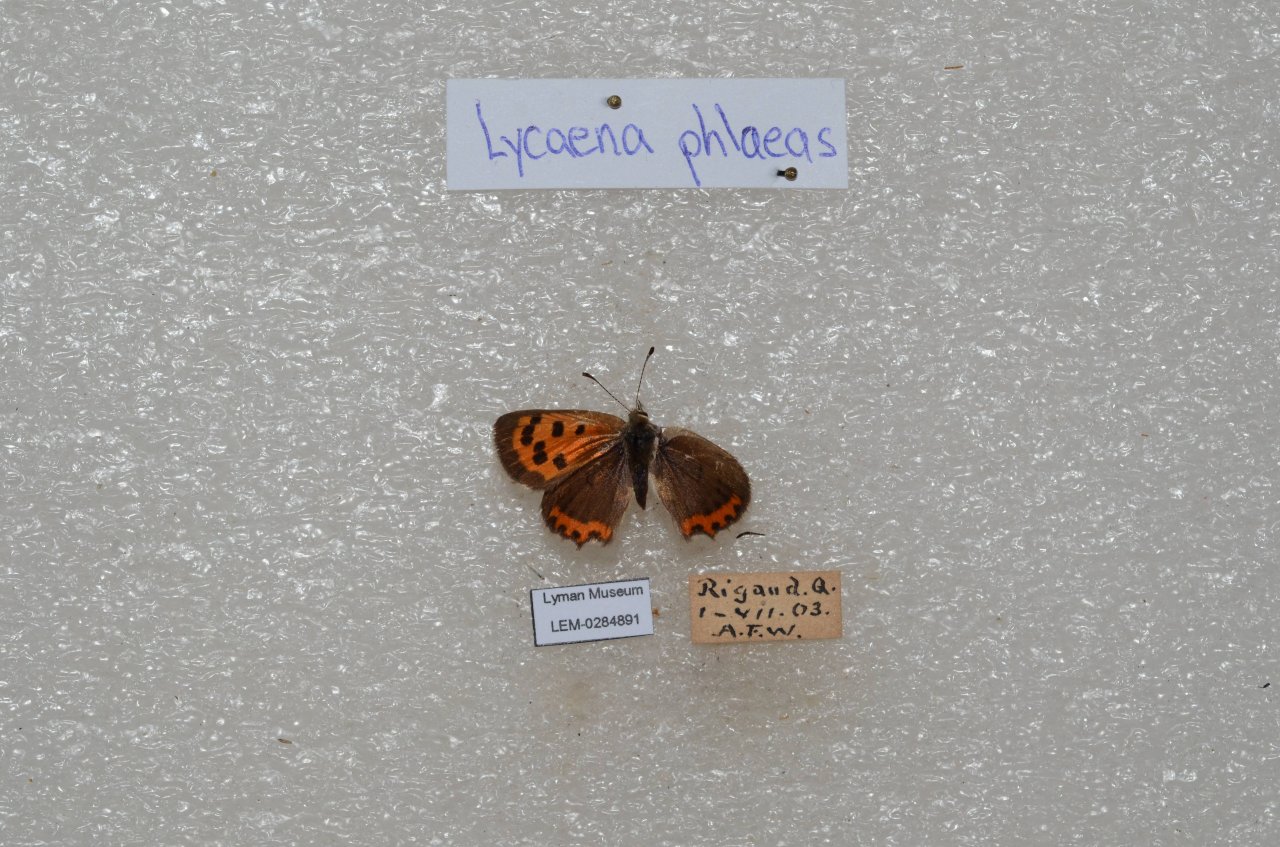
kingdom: Animalia
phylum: Arthropoda
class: Insecta
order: Lepidoptera
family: Lycaenidae
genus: Lycaena
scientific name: Lycaena phlaeas
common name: American Copper
